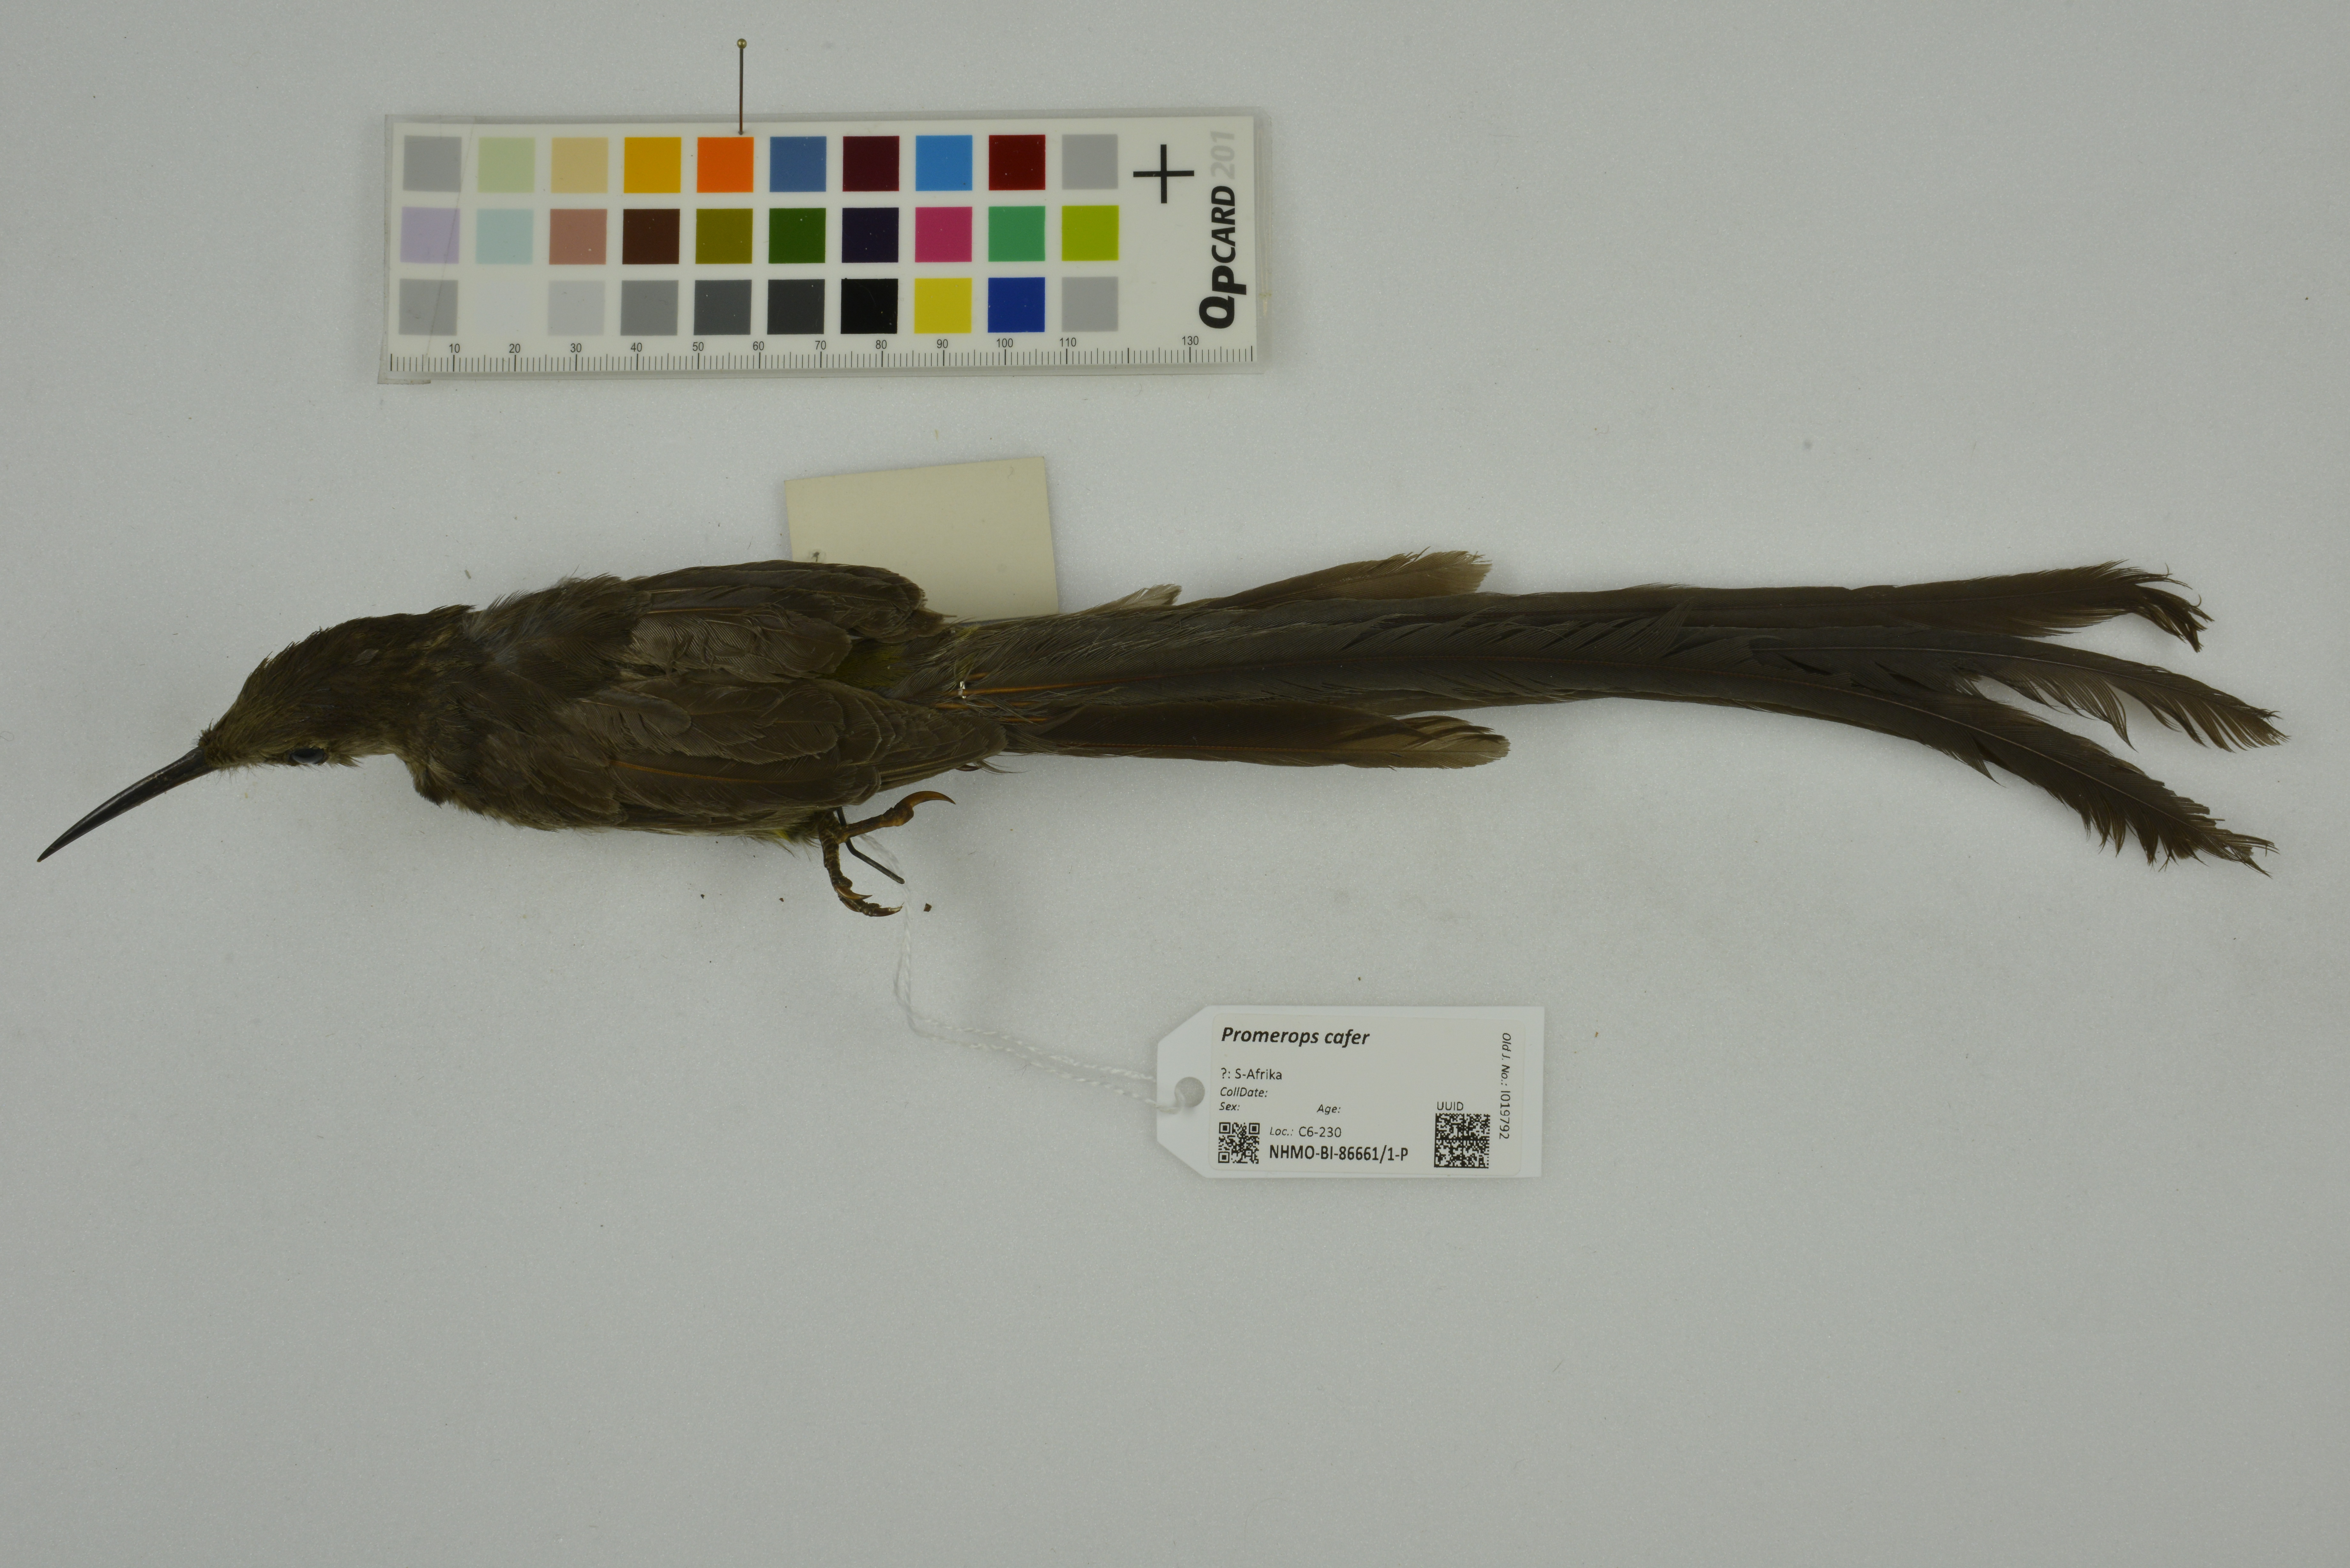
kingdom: Animalia
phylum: Chordata
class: Aves
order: Passeriformes
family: Promeropidae
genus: Promerops
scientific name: Promerops cafer
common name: Cape sugarbird
